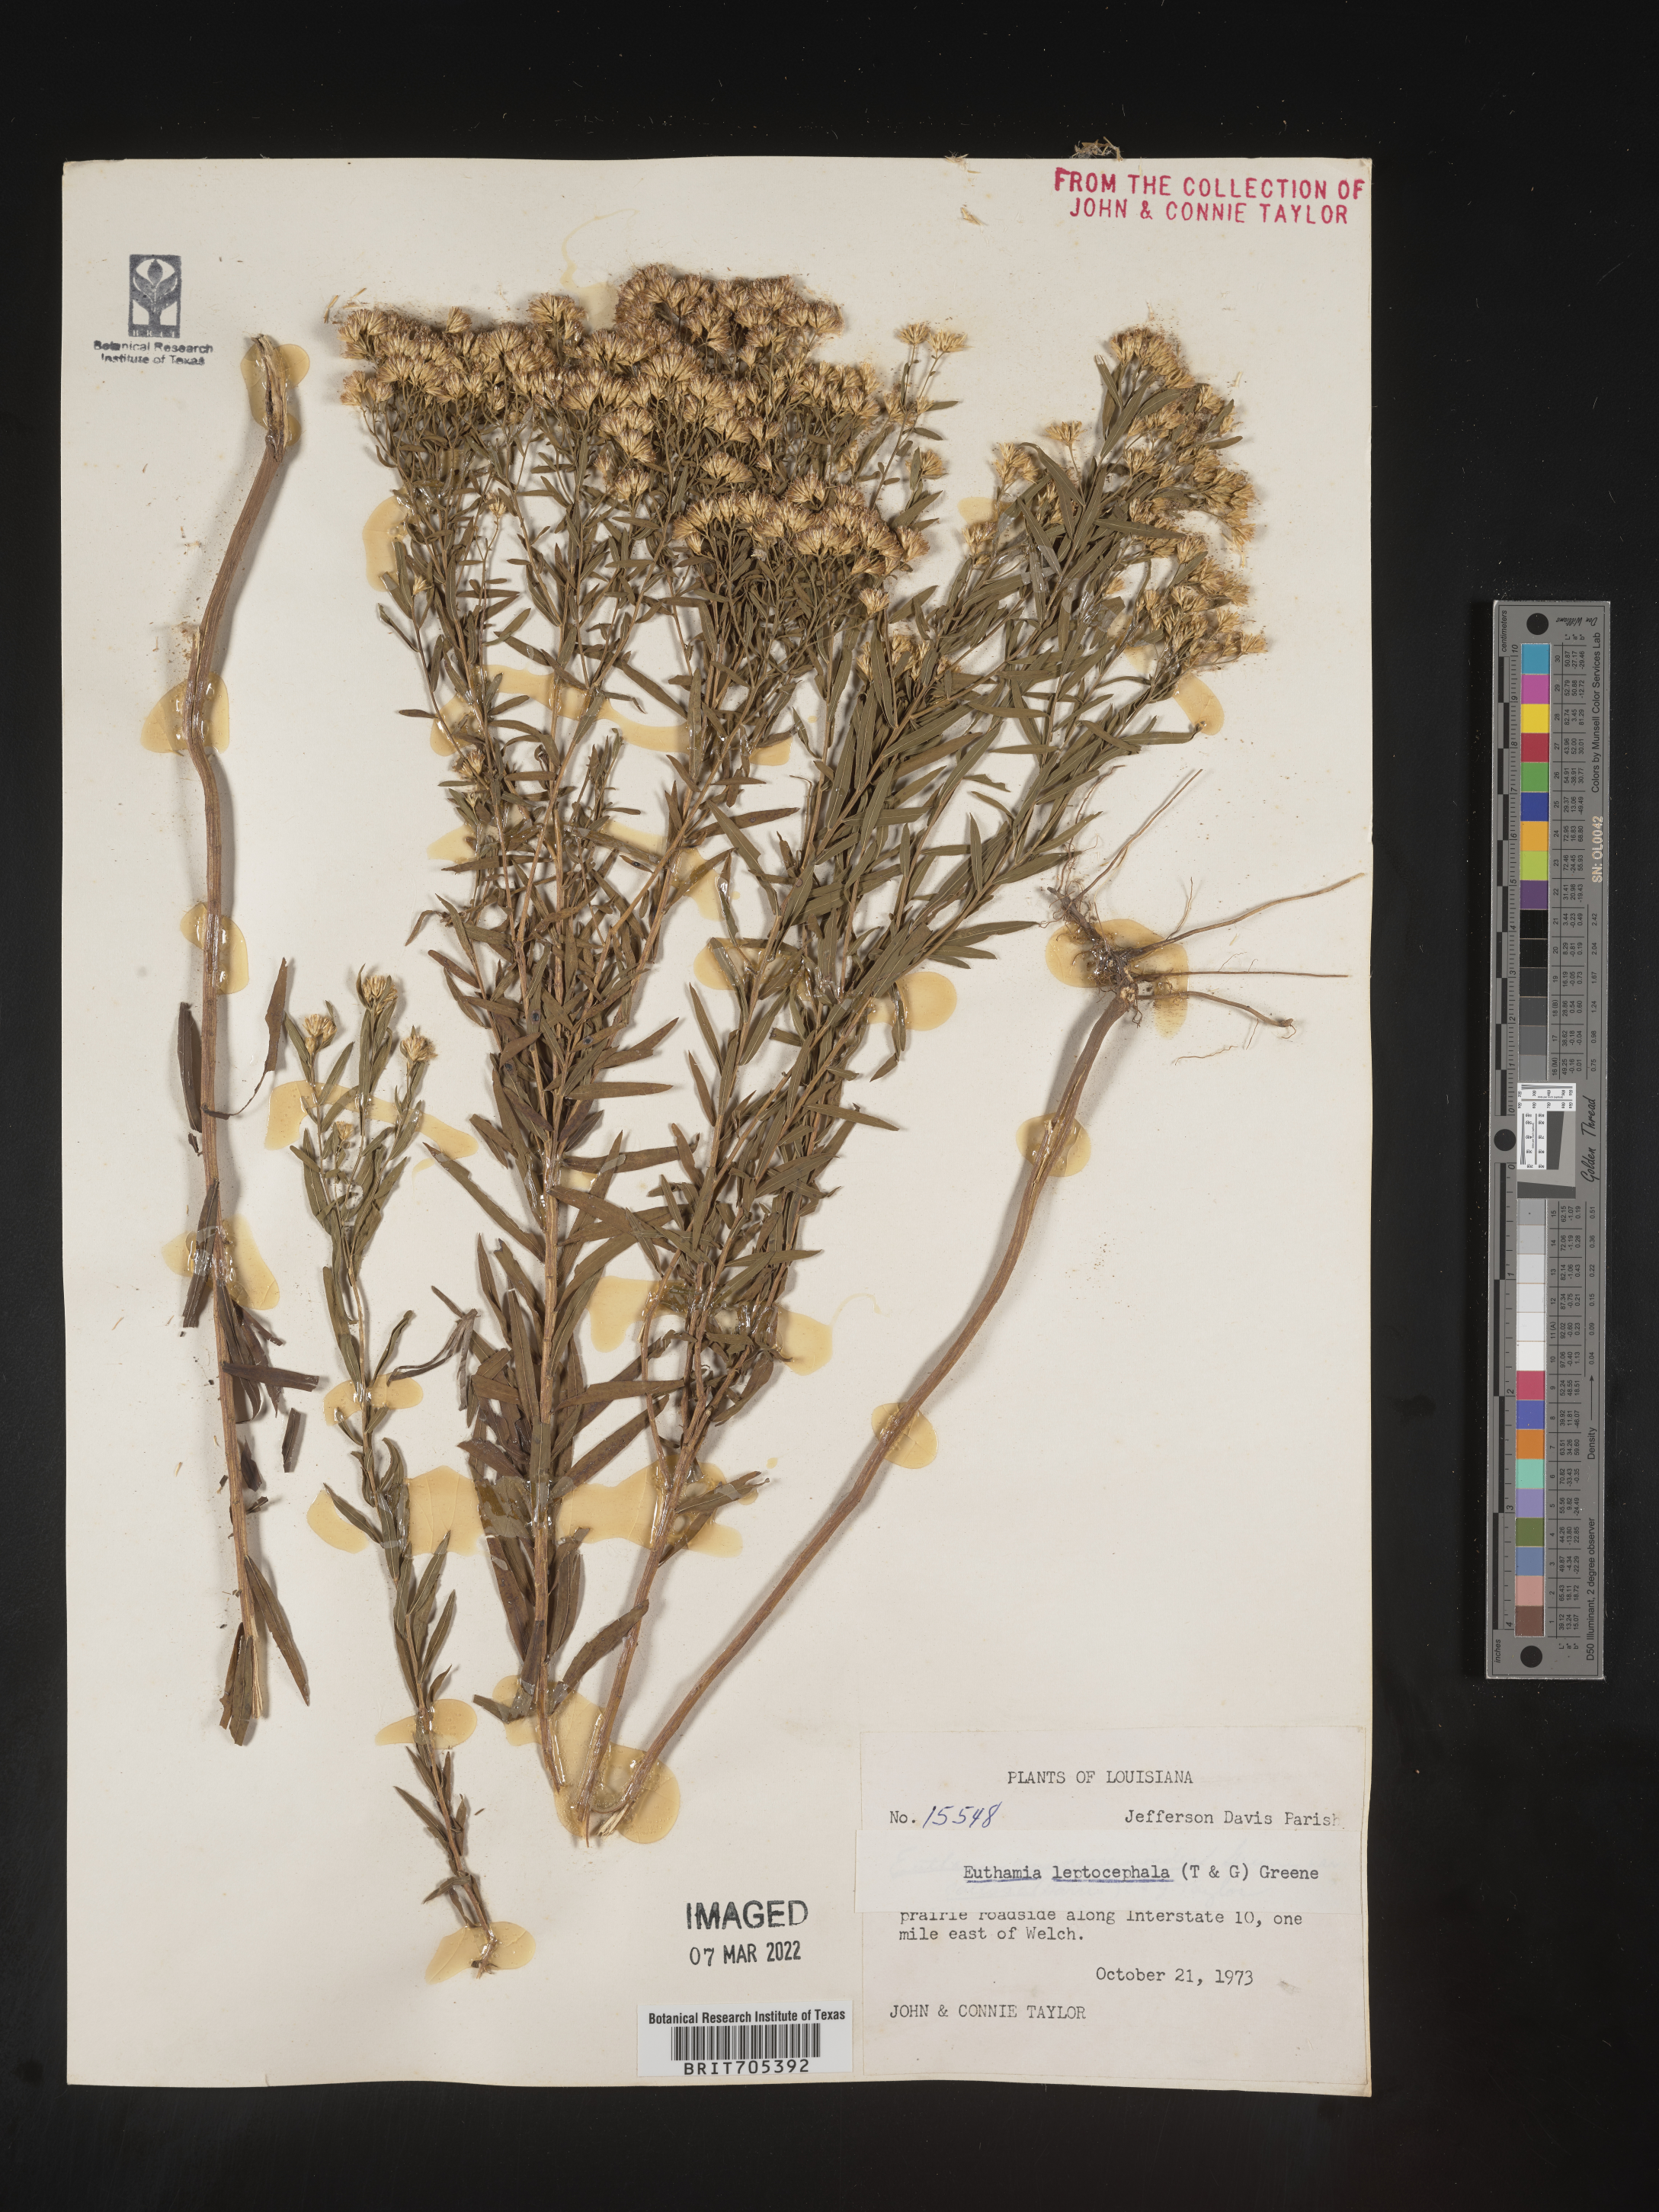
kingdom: Plantae
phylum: Tracheophyta
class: Magnoliopsida
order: Asterales
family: Asteraceae
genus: Euthamia
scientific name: Euthamia leptocephala
